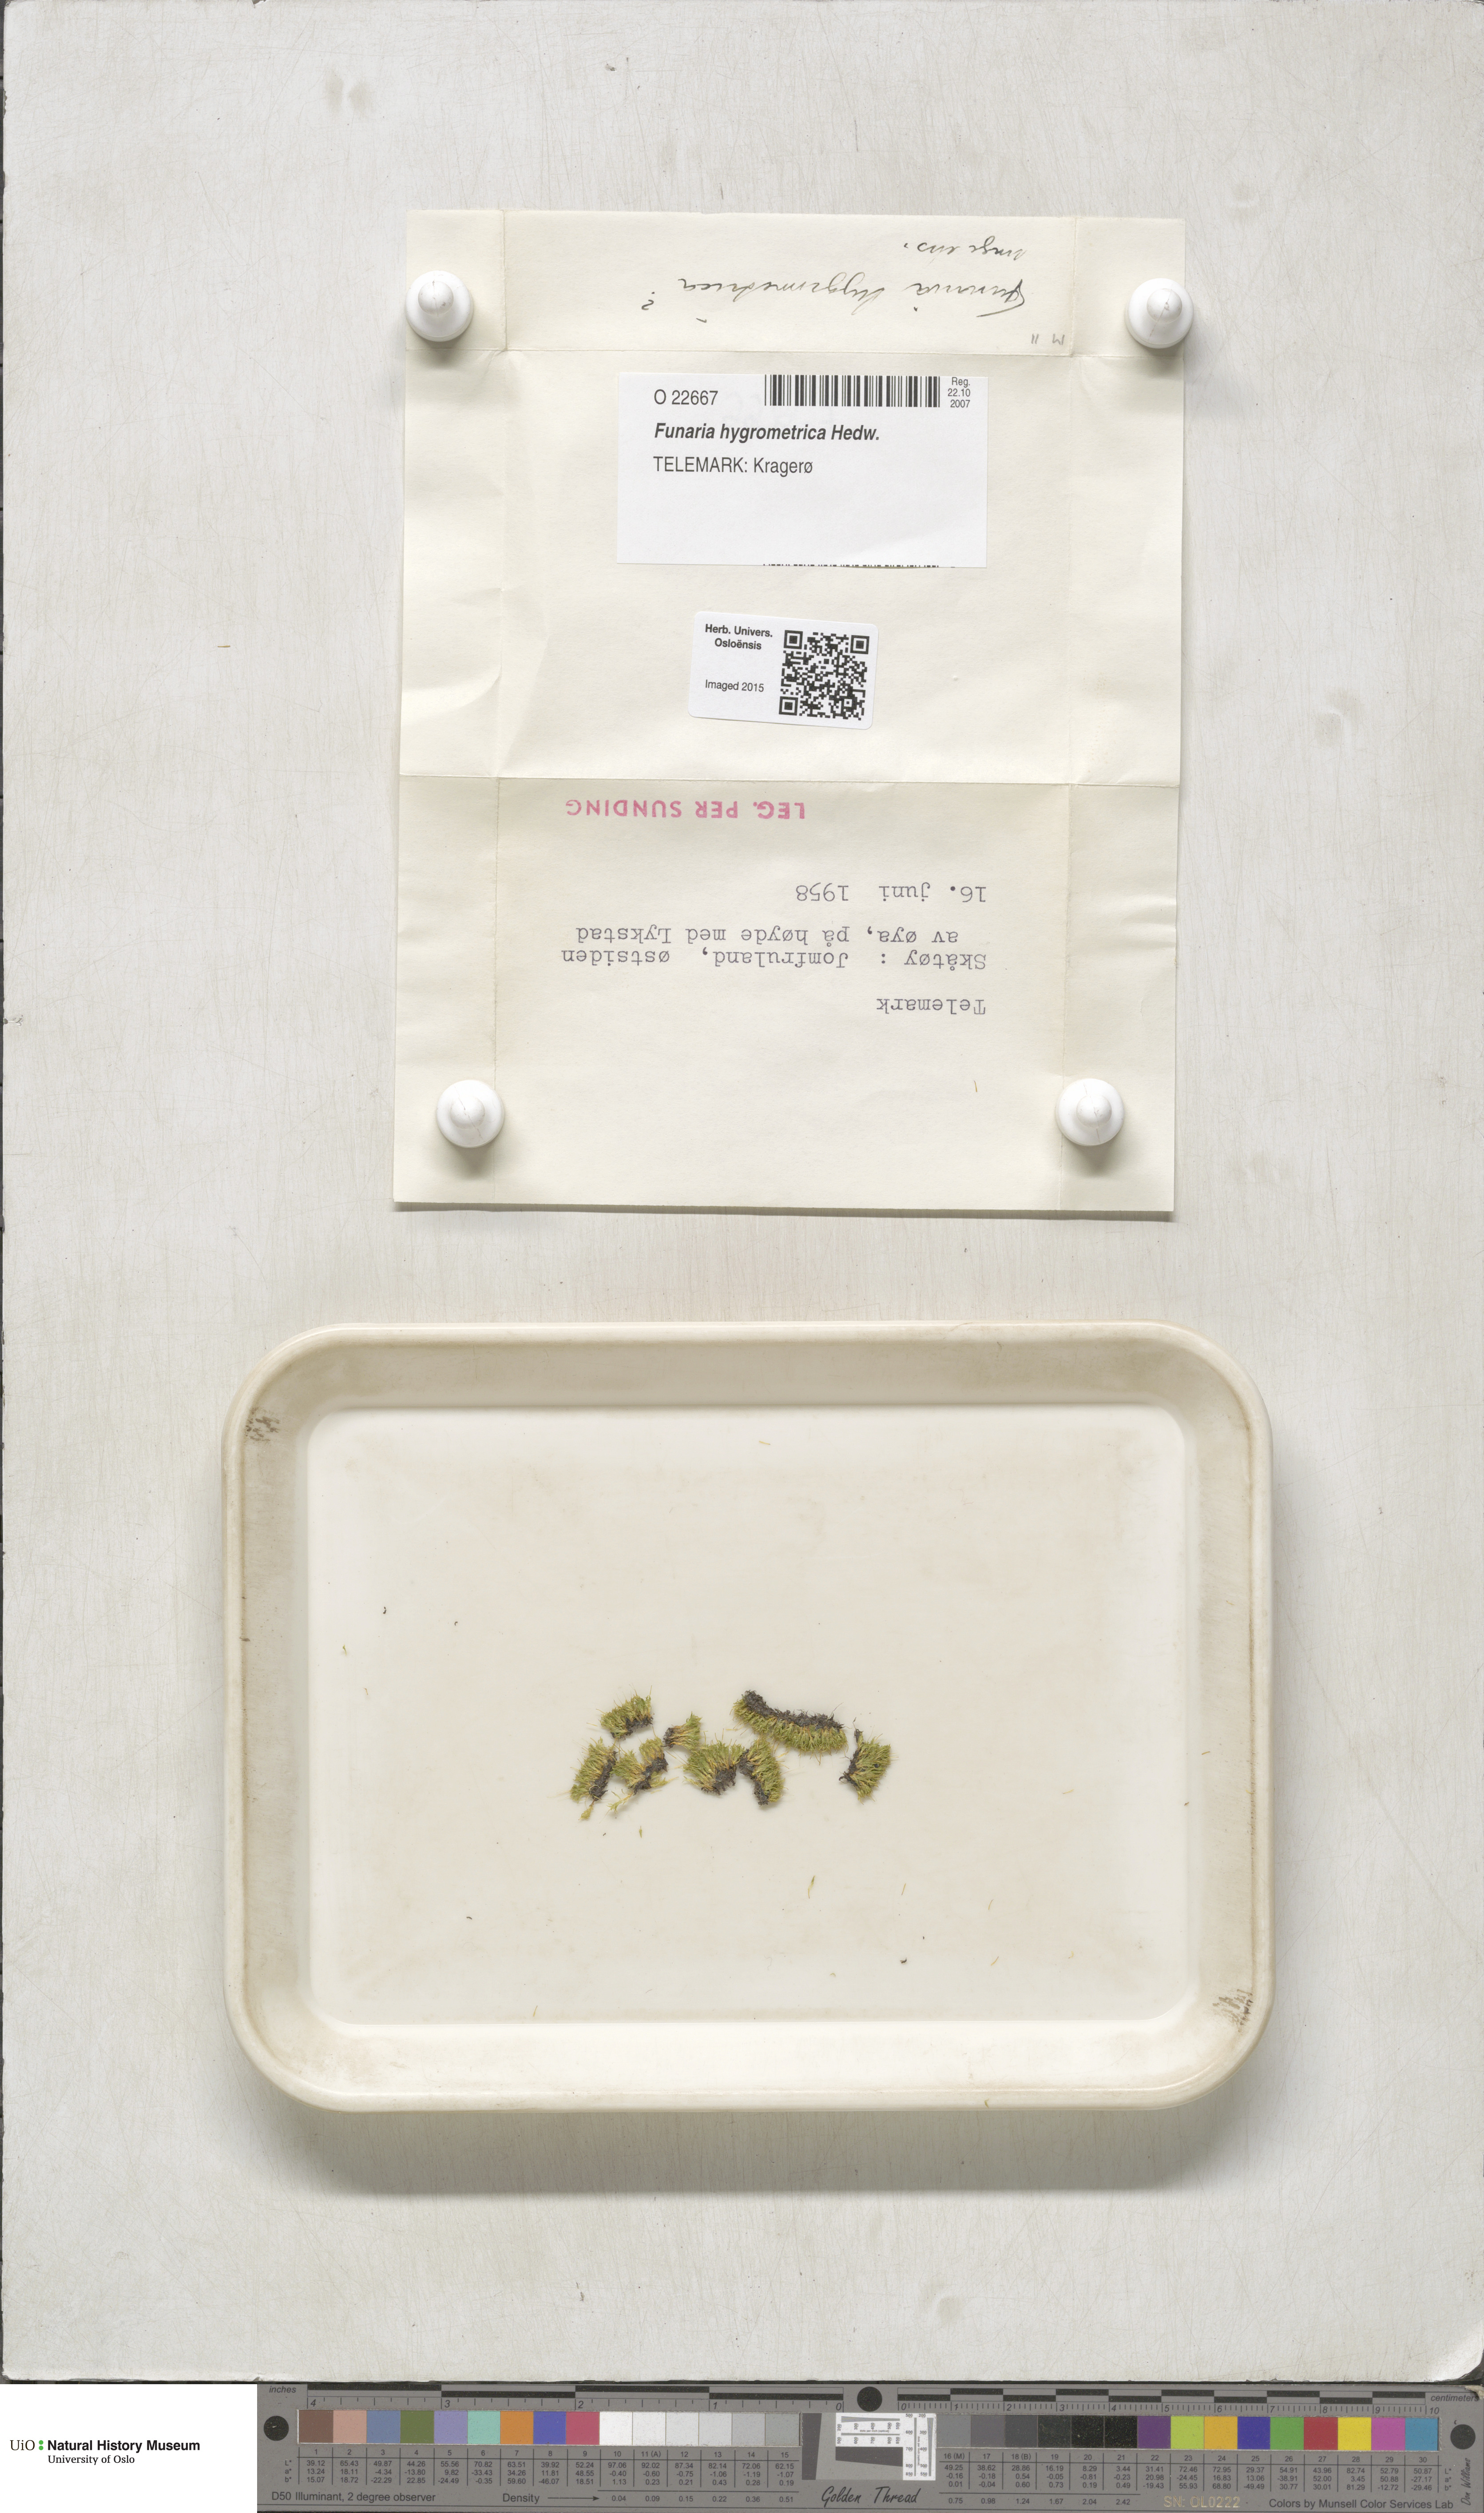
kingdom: Plantae
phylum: Bryophyta
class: Bryopsida
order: Funariales
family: Funariaceae
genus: Funaria
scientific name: Funaria hygrometrica
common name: Common cord moss
